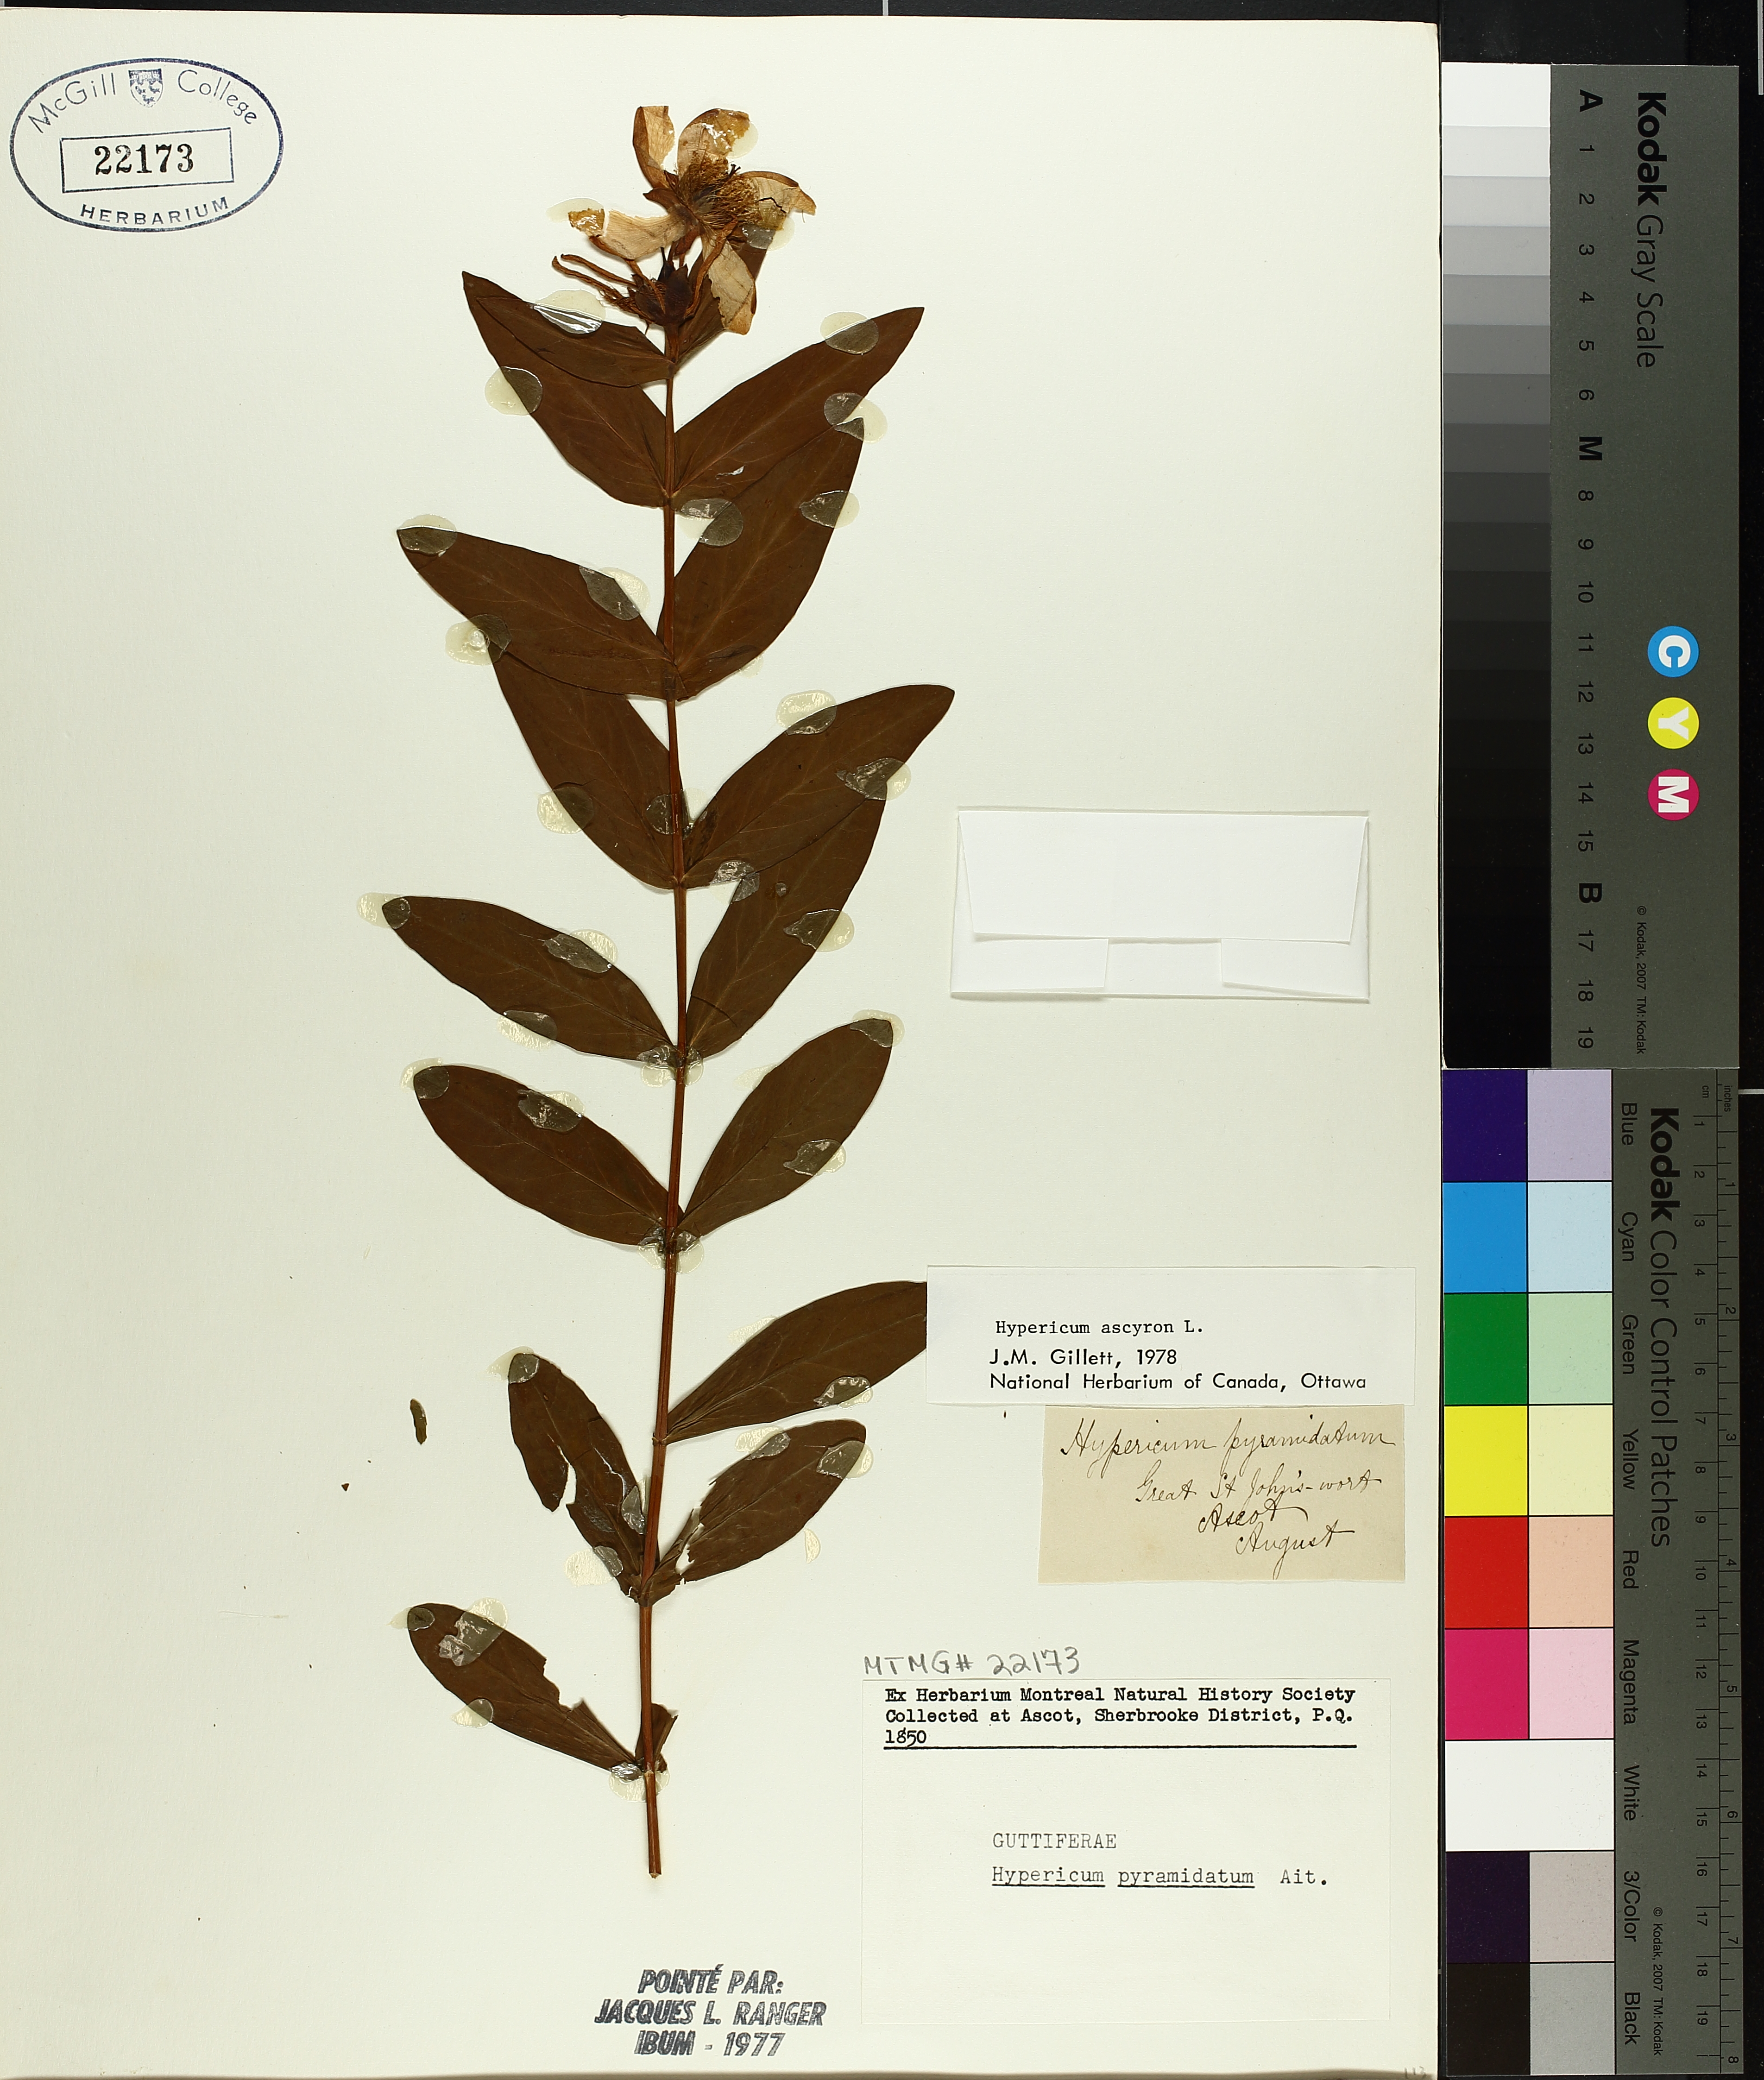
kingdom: Plantae
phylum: Tracheophyta
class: Magnoliopsida
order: Malpighiales
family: Hypericaceae
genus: Hypericum
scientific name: Hypericum ascyron
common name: Giant st. john's-wort
